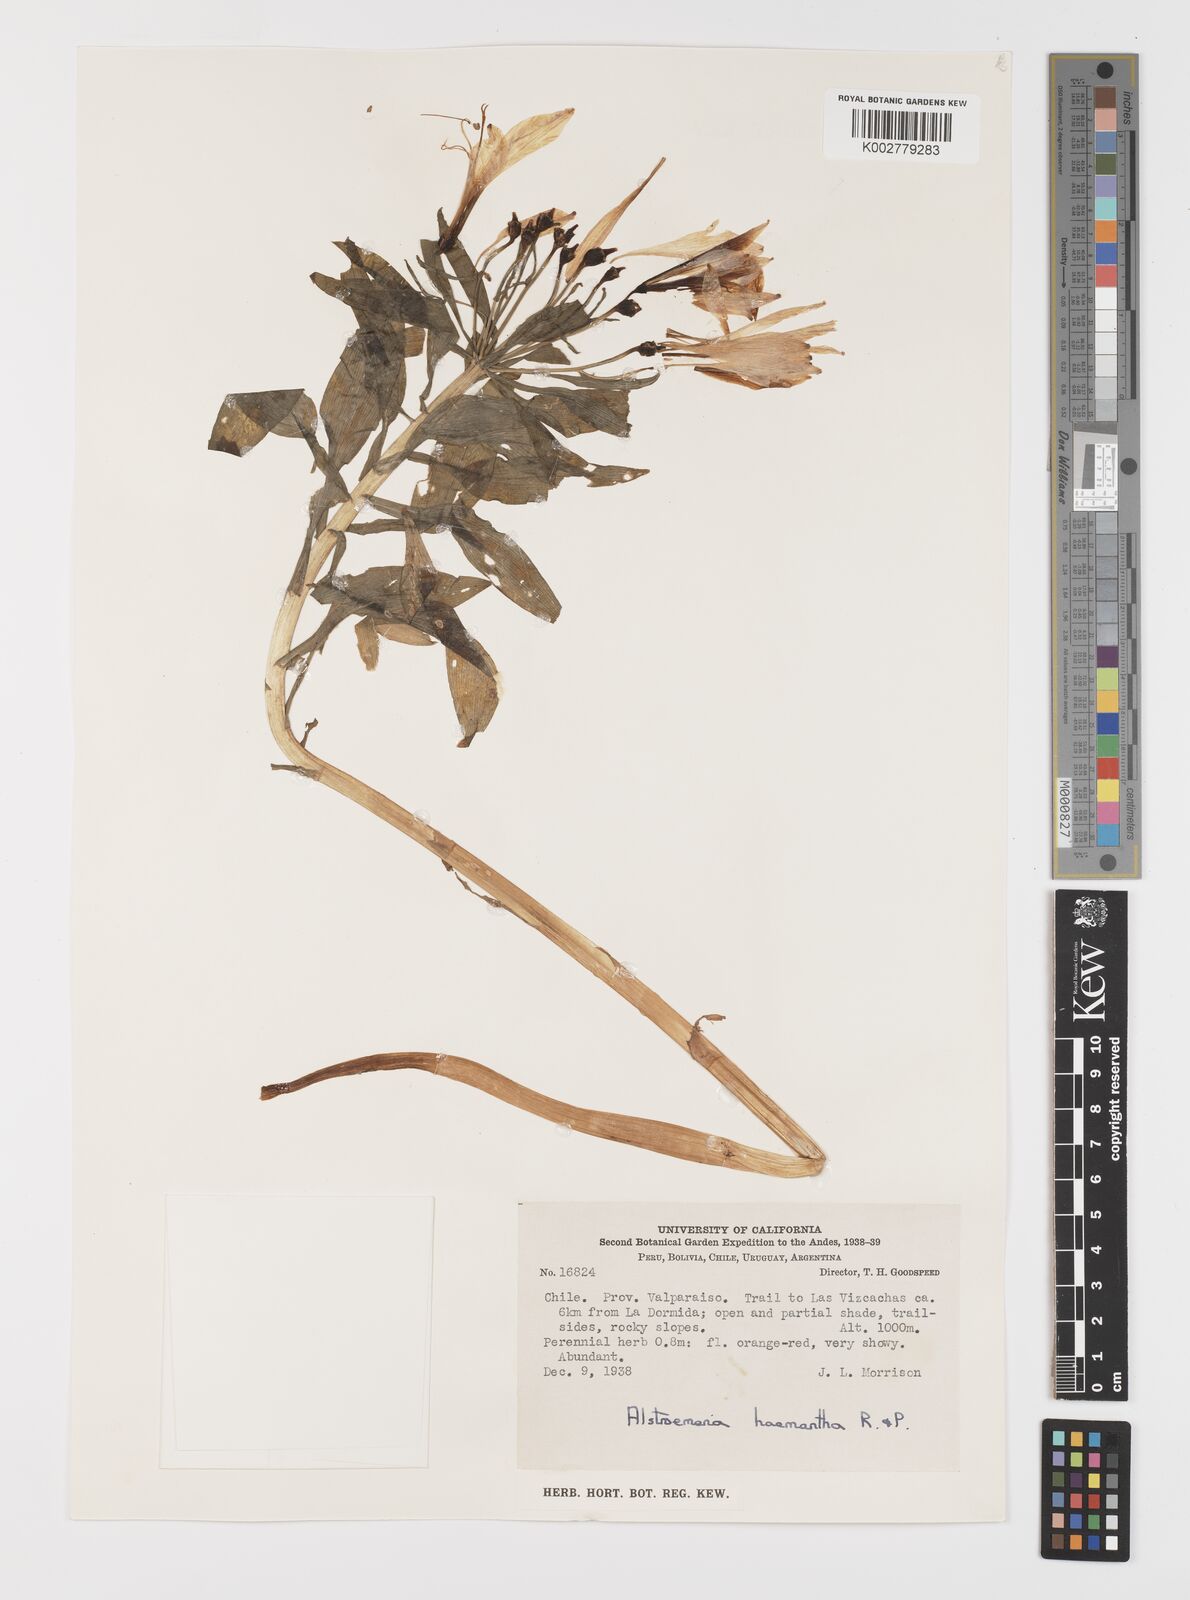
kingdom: Plantae
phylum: Tracheophyta
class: Liliopsida
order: Liliales
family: Alstroemeriaceae
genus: Alstroemeria
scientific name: Alstroemeria ligtu
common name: St. martin's-flower
